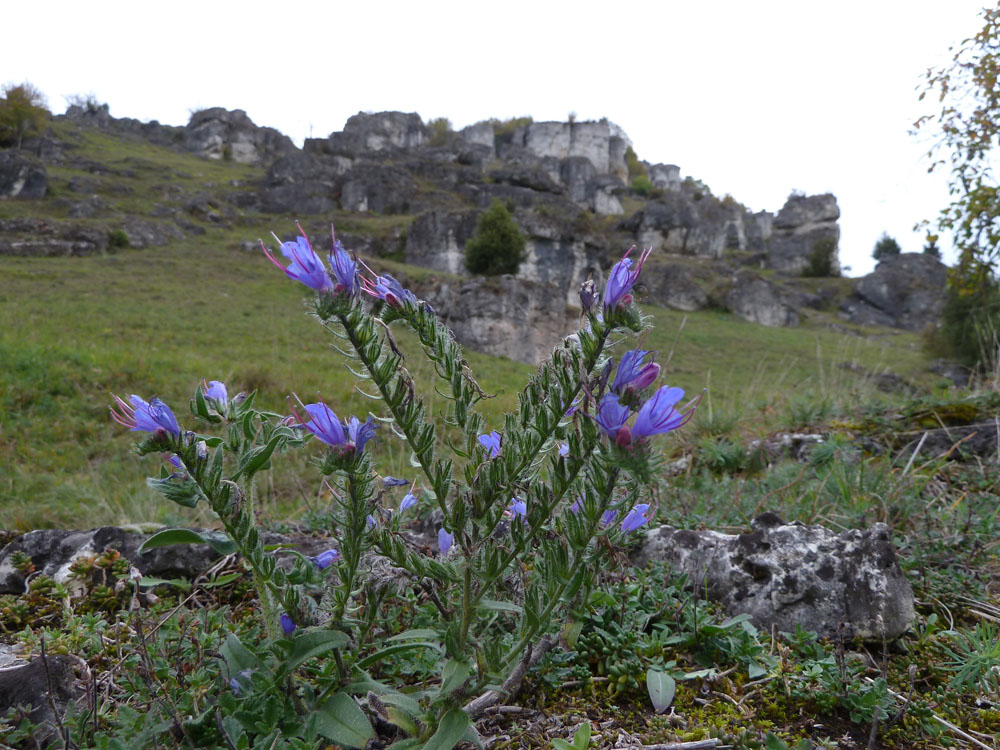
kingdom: Plantae
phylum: Tracheophyta
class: Magnoliopsida
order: Boraginales
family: Boraginaceae
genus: Echium
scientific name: Echium vulgare
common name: Common viper's bugloss
